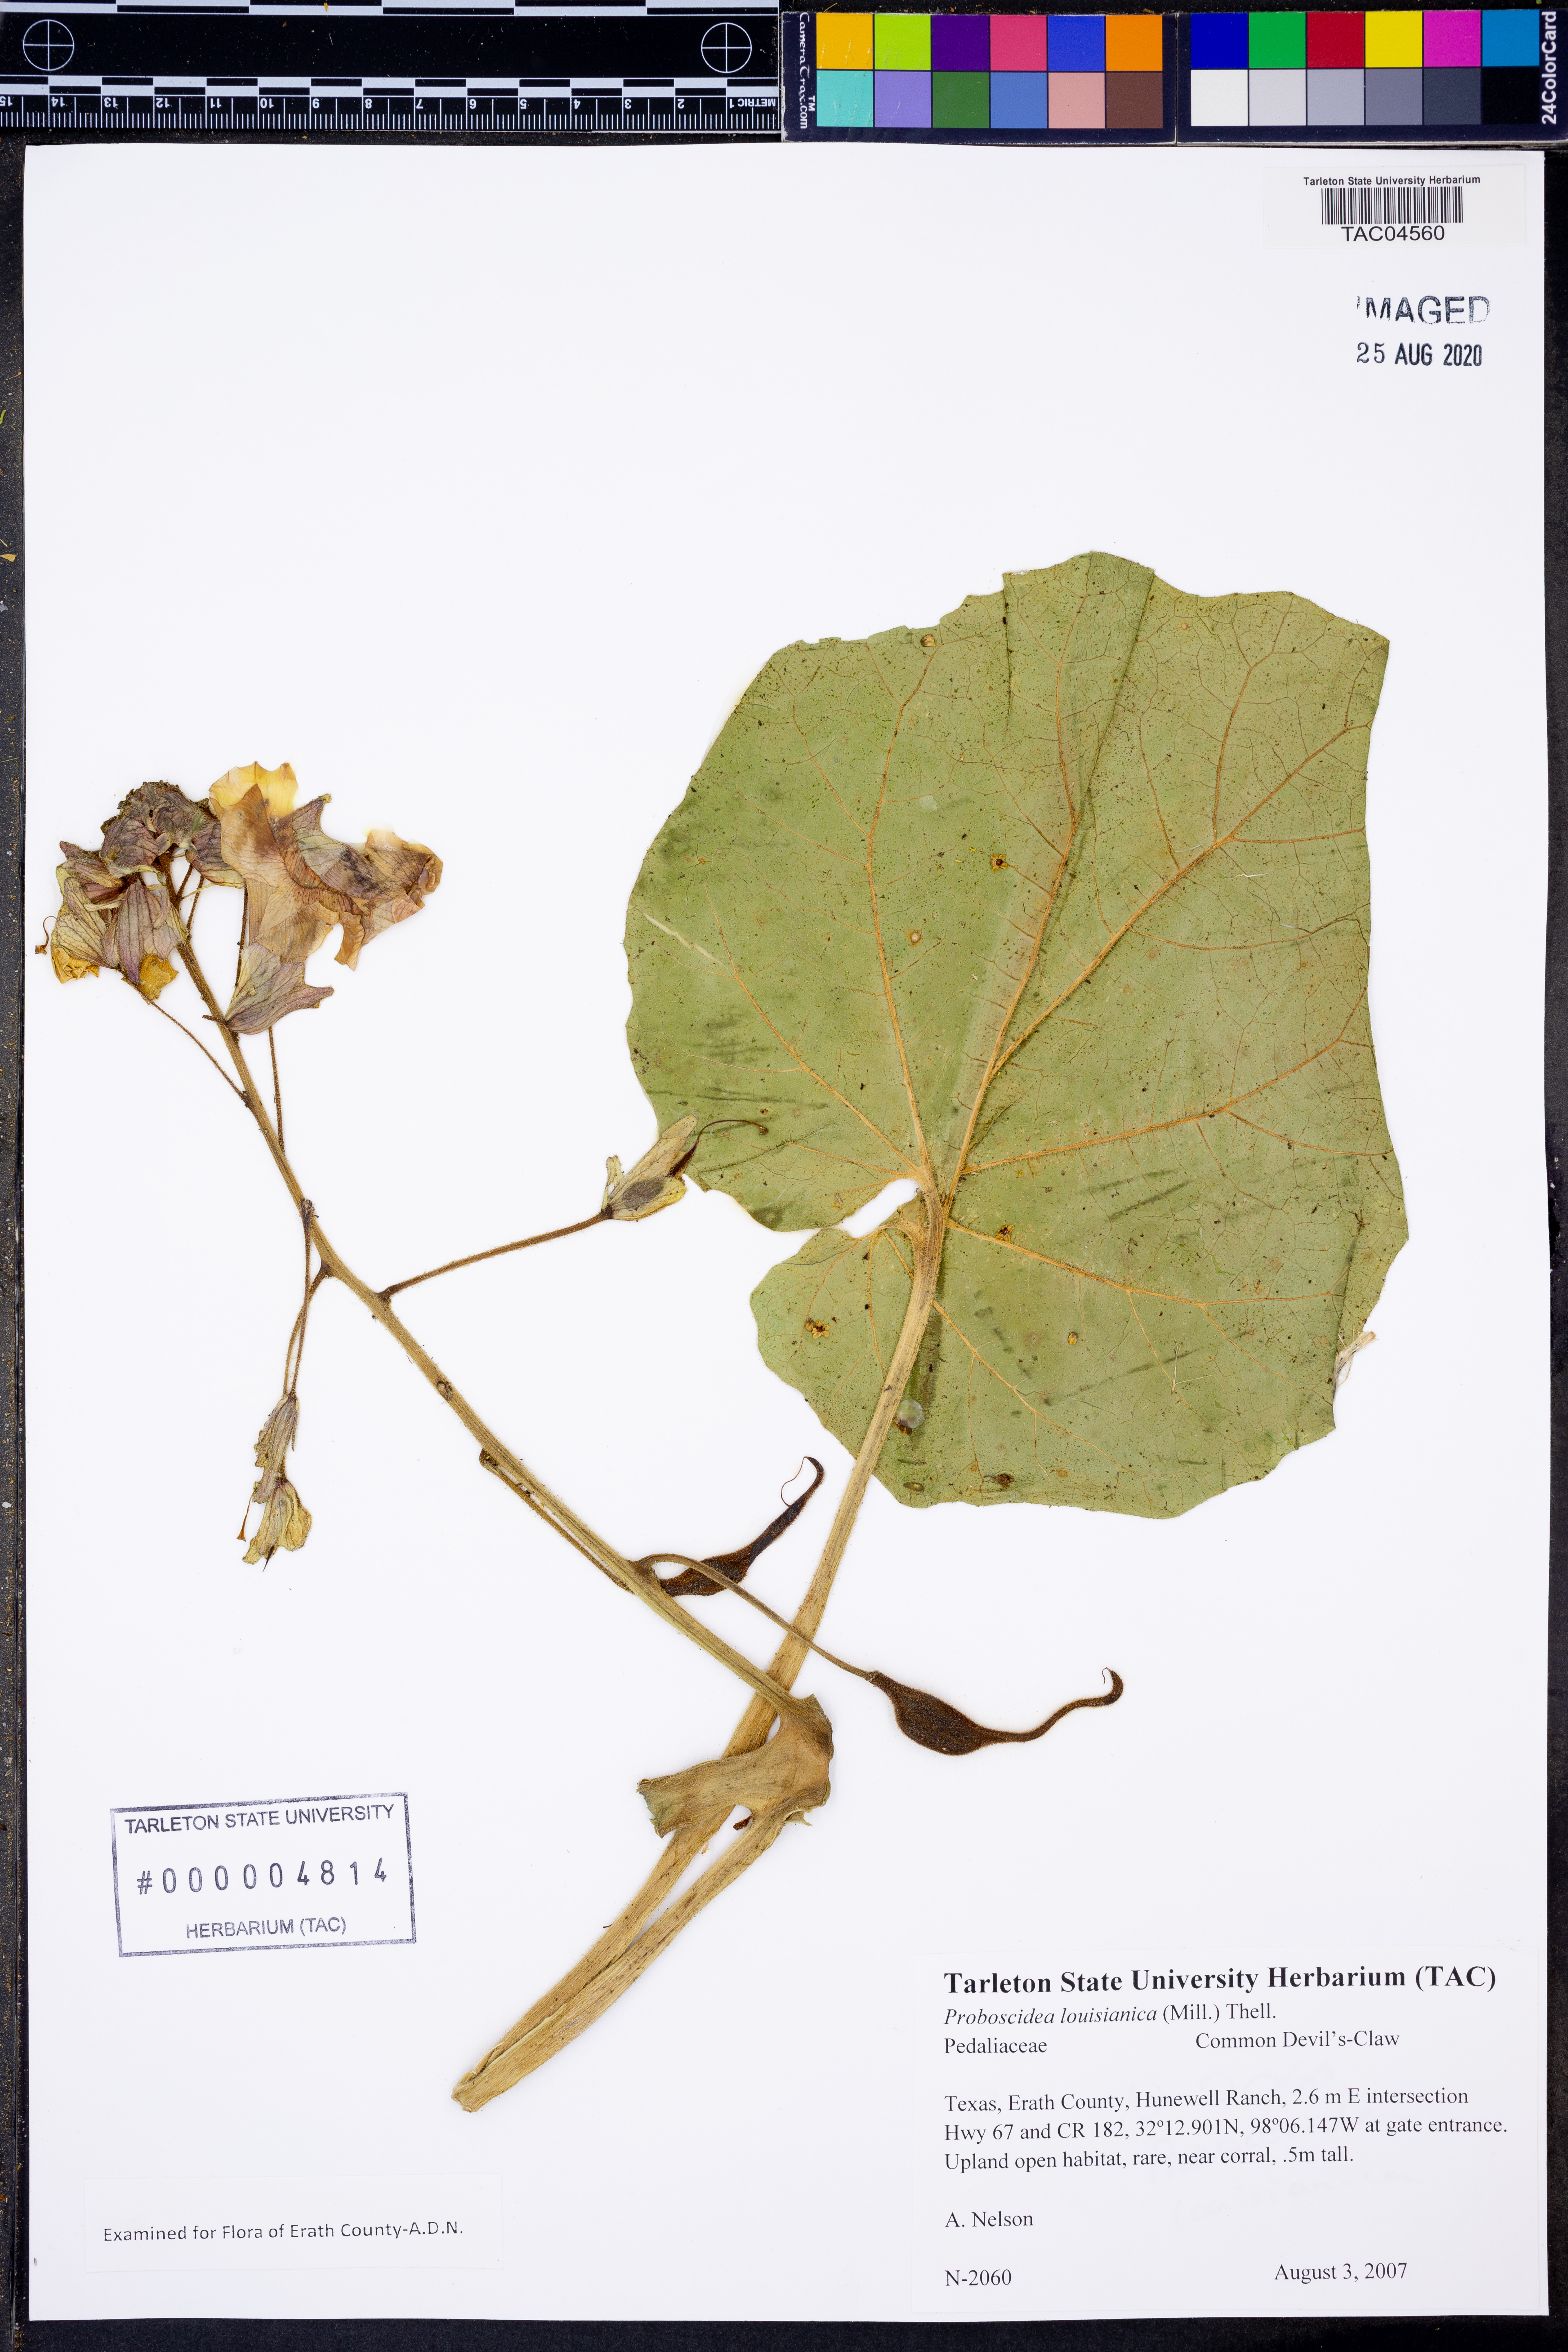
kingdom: Plantae
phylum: Tracheophyta
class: Magnoliopsida
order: Lamiales
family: Martyniaceae
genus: Proboscidea
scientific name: Proboscidea louisianica
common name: Elephant tusks
